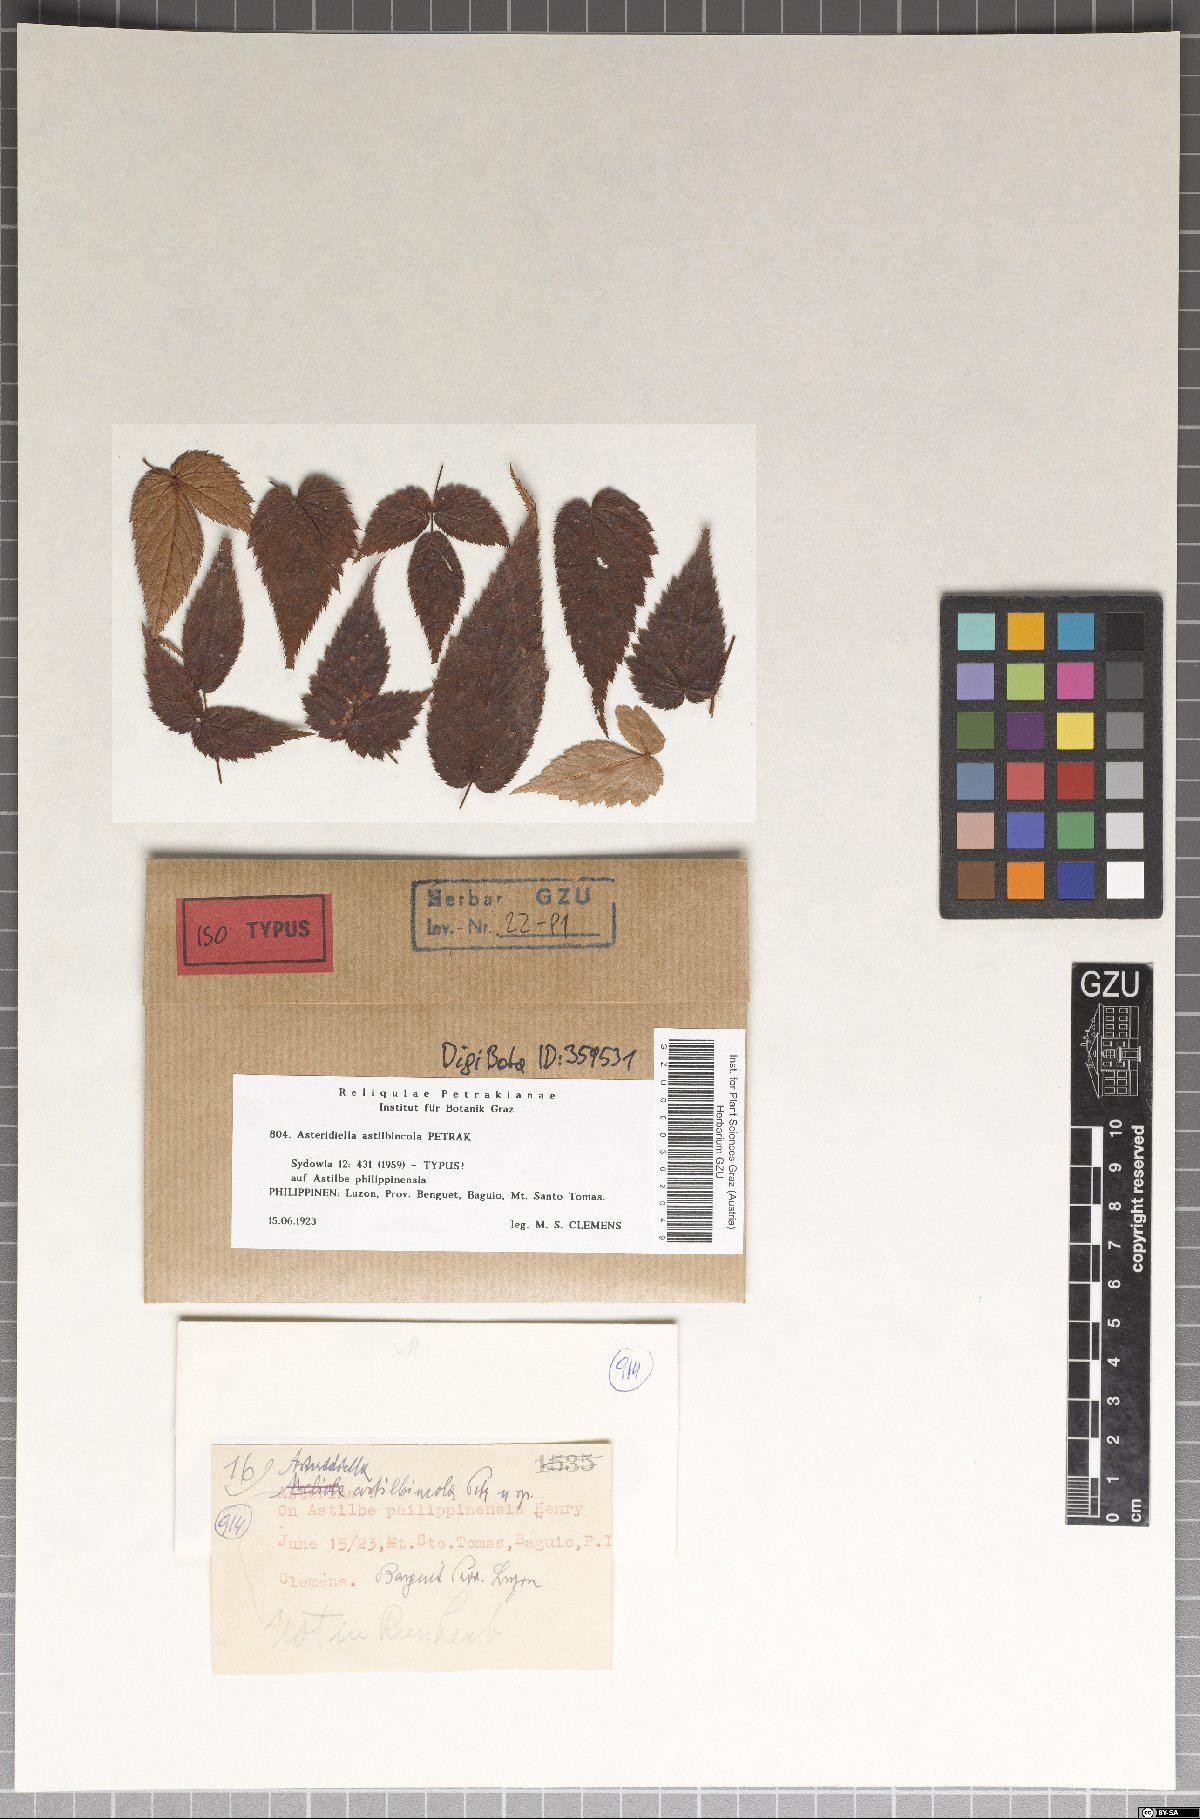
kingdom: Fungi
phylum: Ascomycota
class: Sordariomycetes
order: Meliolales
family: Meliolaceae
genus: Asteridiella
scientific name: Asteridiella astilbincola
